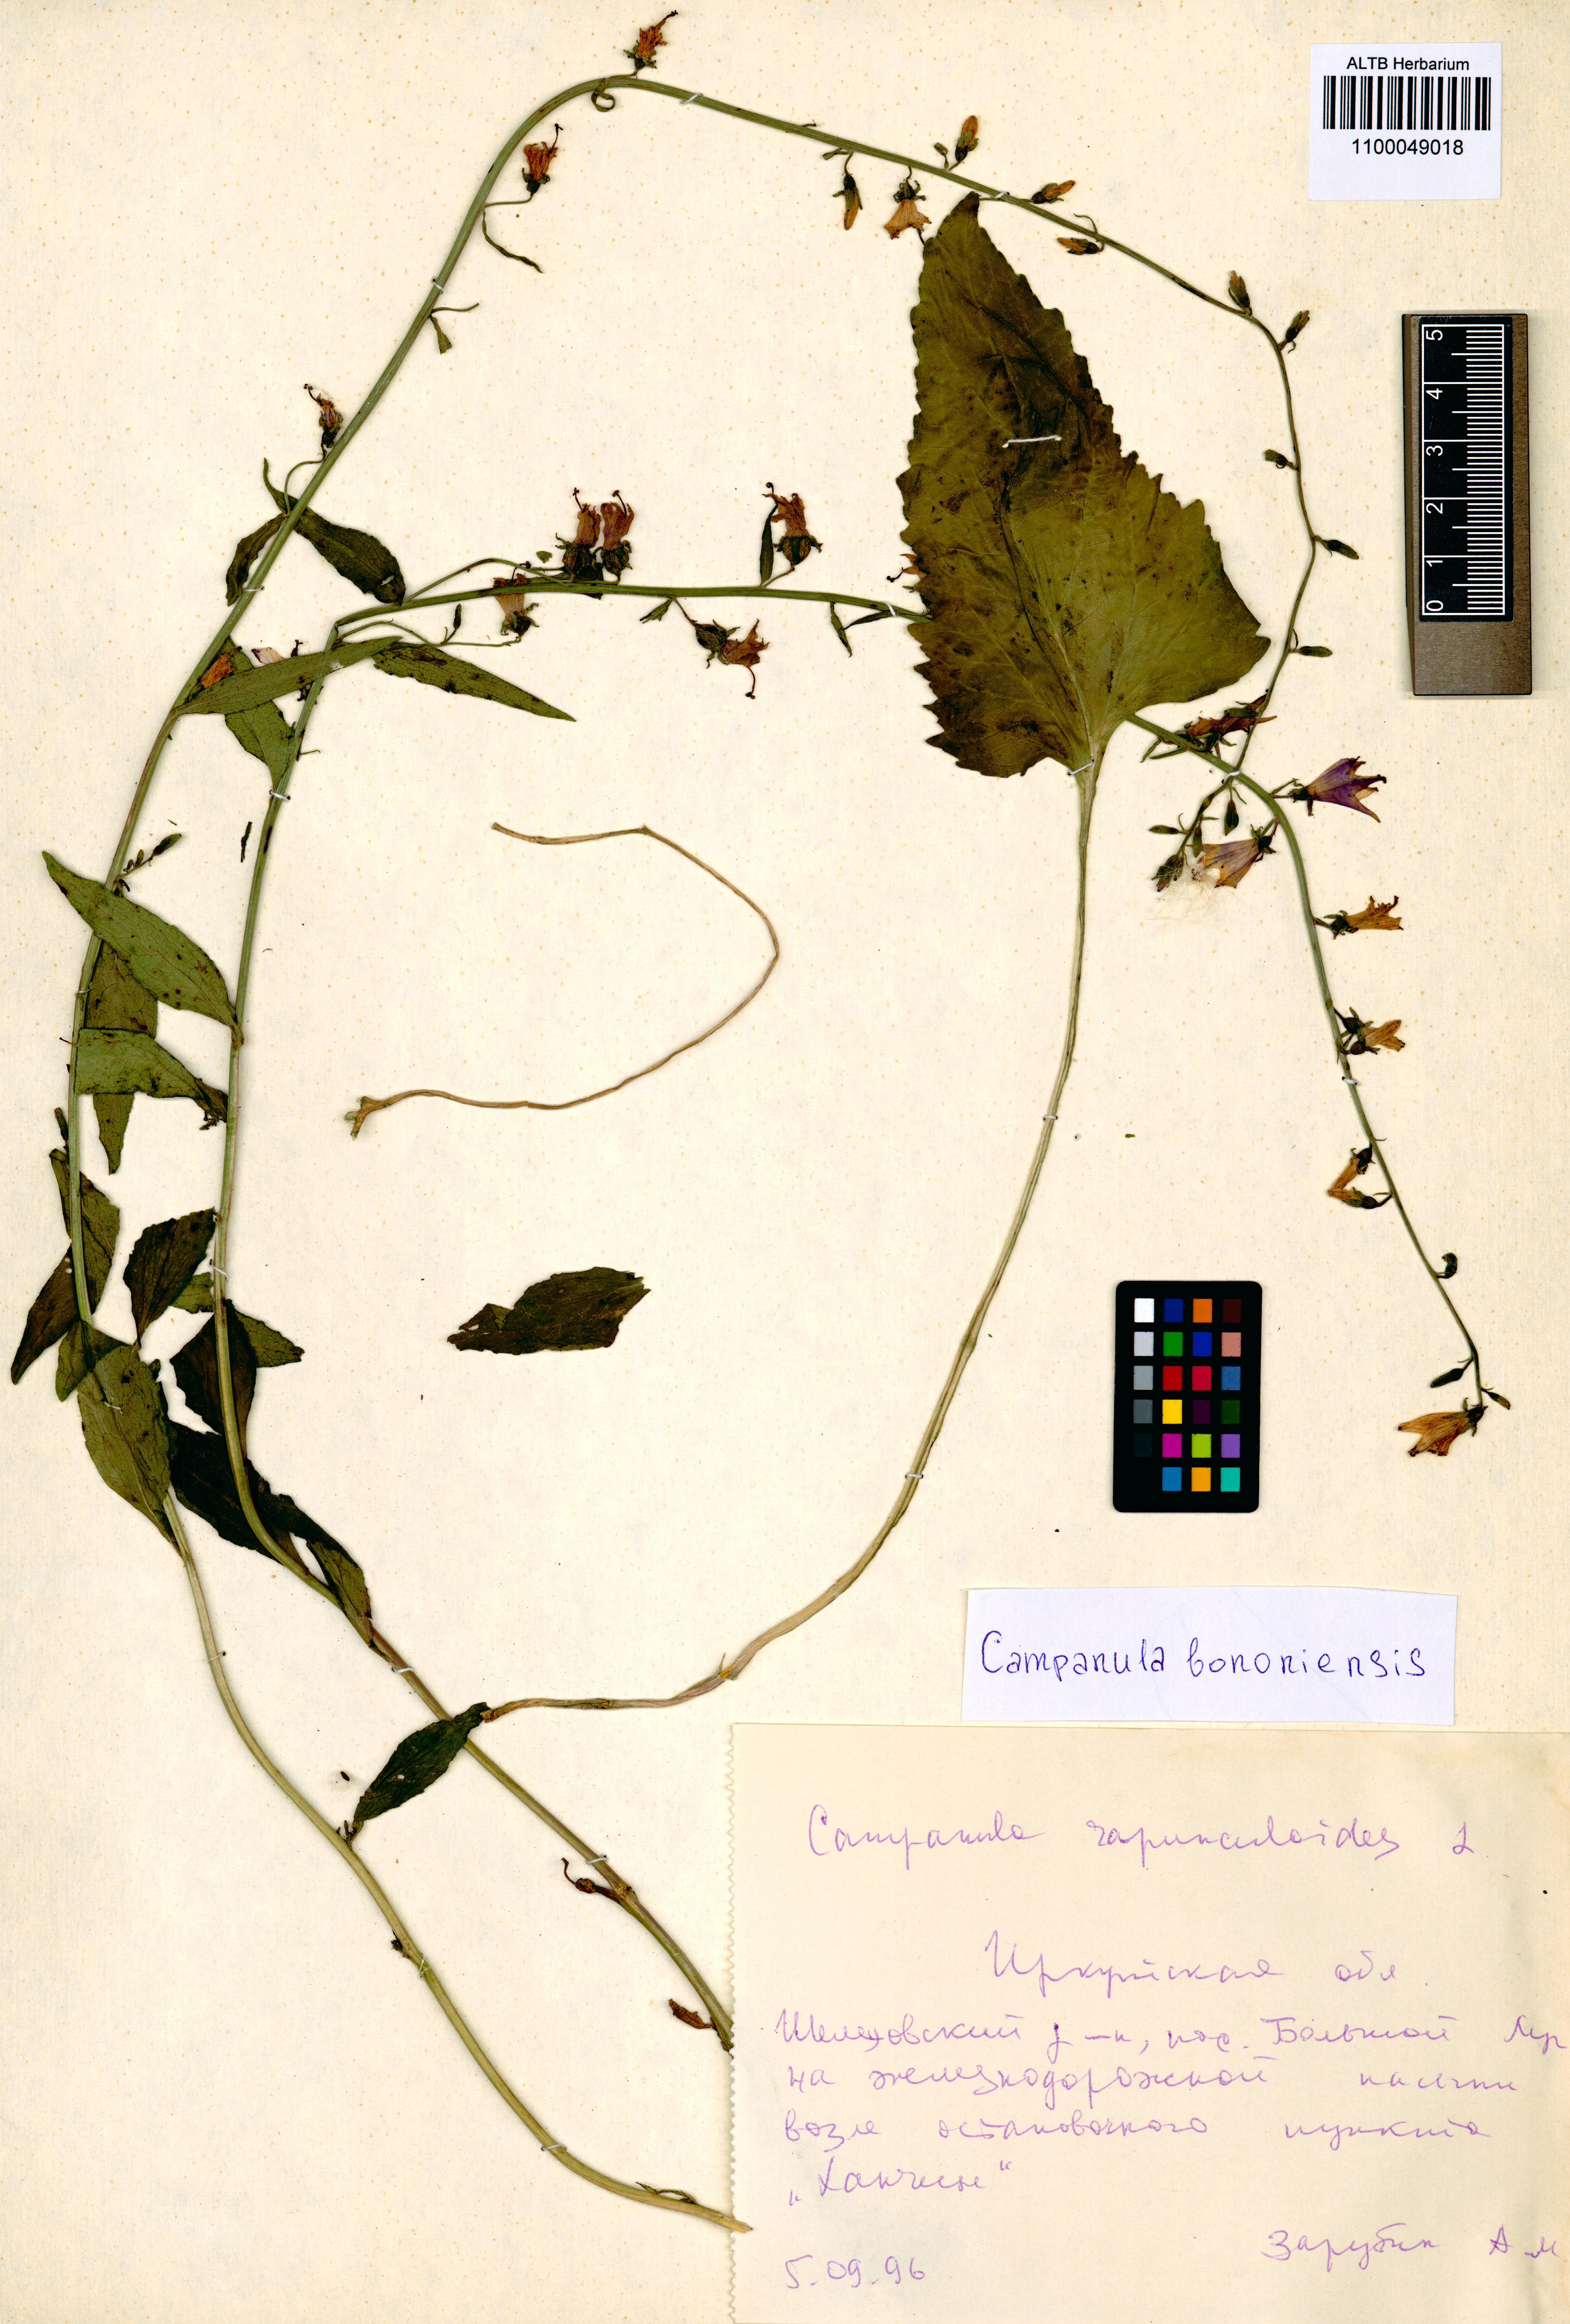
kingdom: Plantae
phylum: Tracheophyta
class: Magnoliopsida
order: Asterales
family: Campanulaceae
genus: Campanula
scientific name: Campanula bononiensis
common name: Pale bellflower
